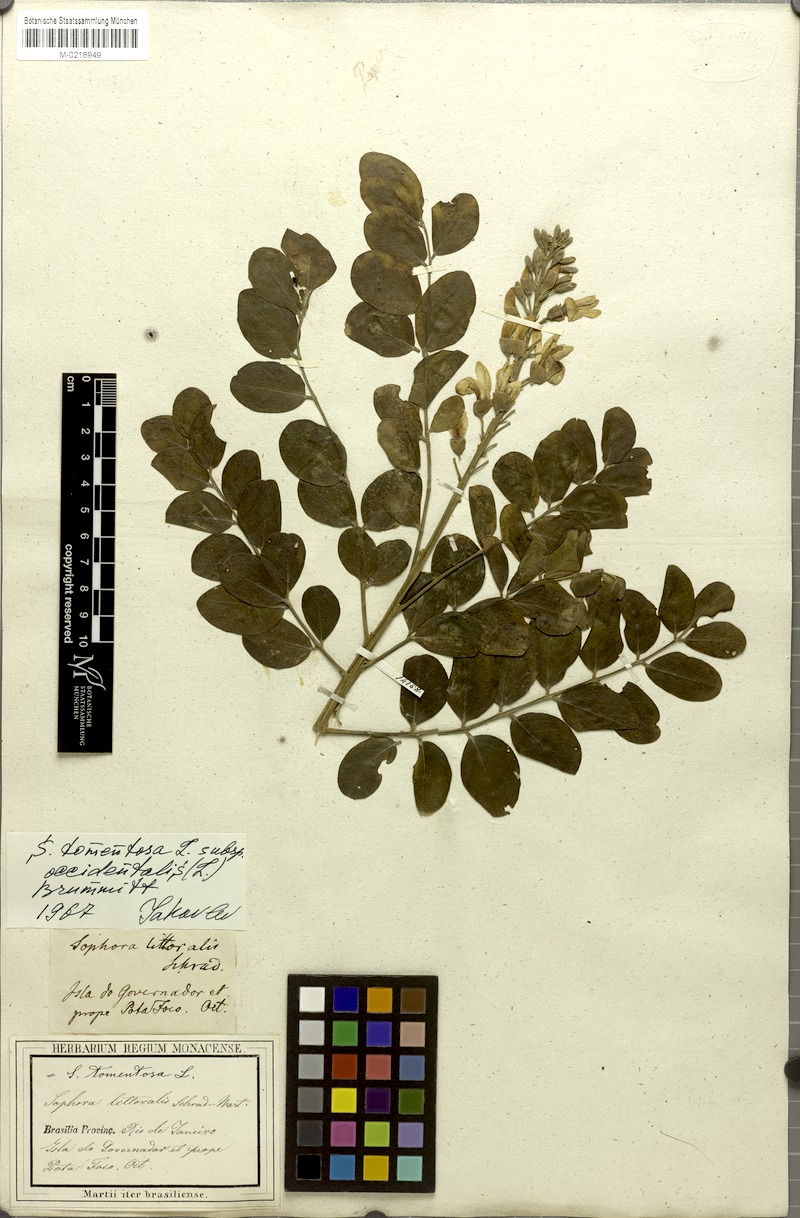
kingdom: Plantae
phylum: Tracheophyta
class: Magnoliopsida
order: Fabales
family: Fabaceae
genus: Sophora
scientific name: Sophora tomentosa
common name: Yellow necklacepod
